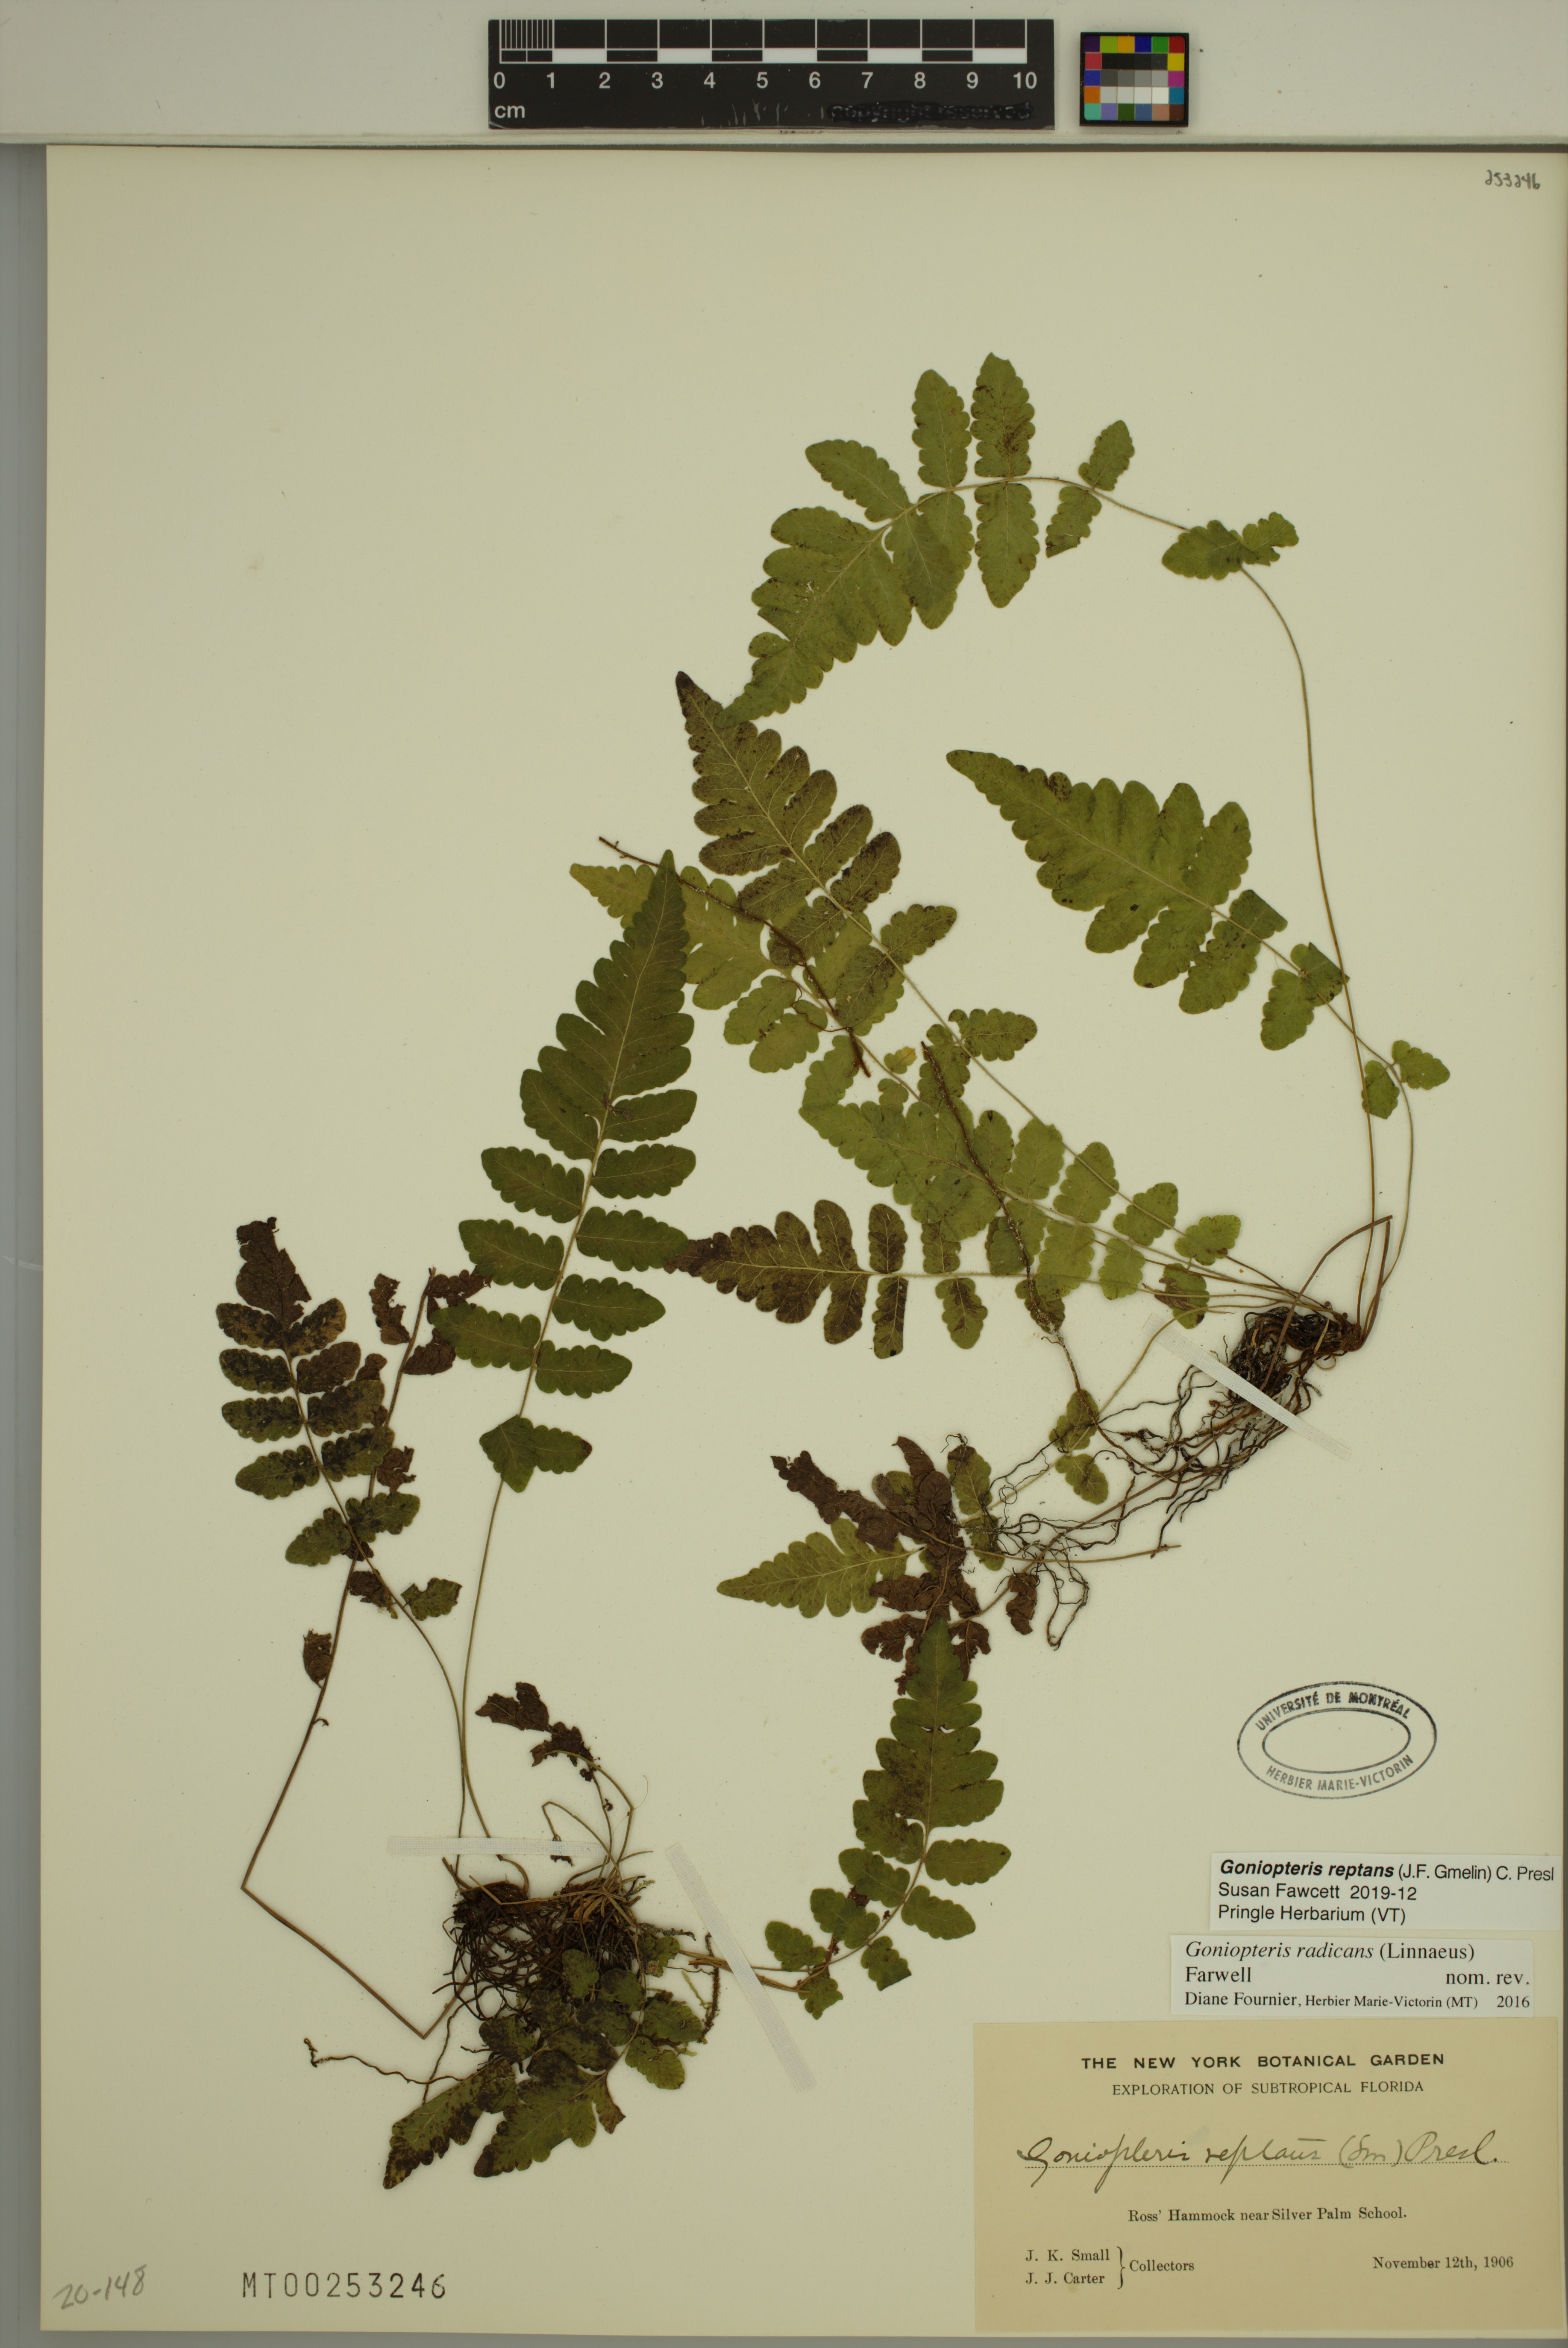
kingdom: Plantae
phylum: Tracheophyta
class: Polypodiopsida
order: Polypodiales
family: Thelypteridaceae
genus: Goniopteris
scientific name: Goniopteris reptans
